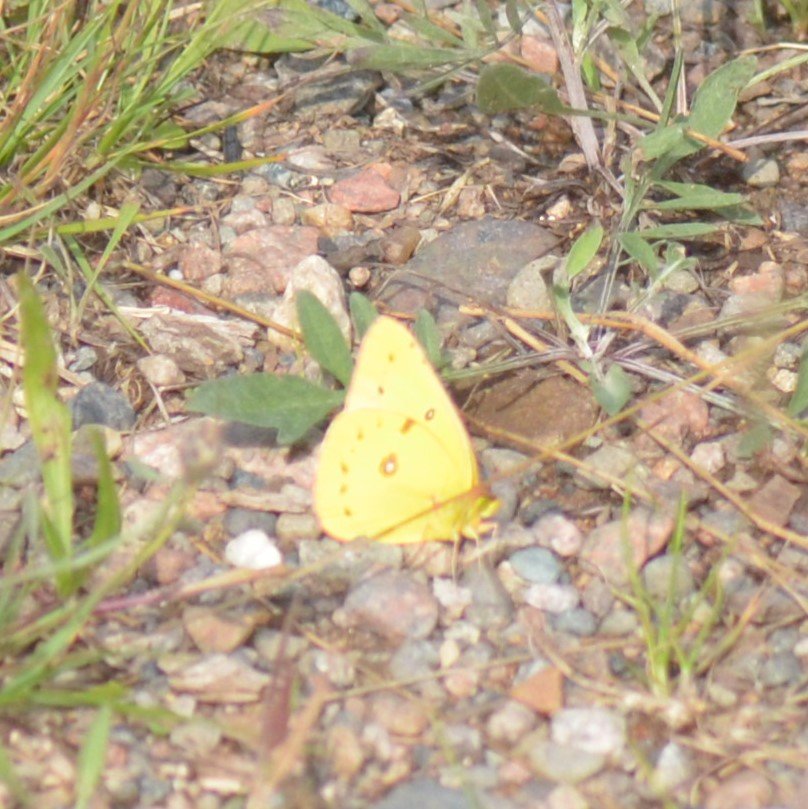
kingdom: Animalia
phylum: Arthropoda
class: Insecta
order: Lepidoptera
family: Pieridae
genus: Colias
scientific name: Colias eurytheme
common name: Orange Sulphur
